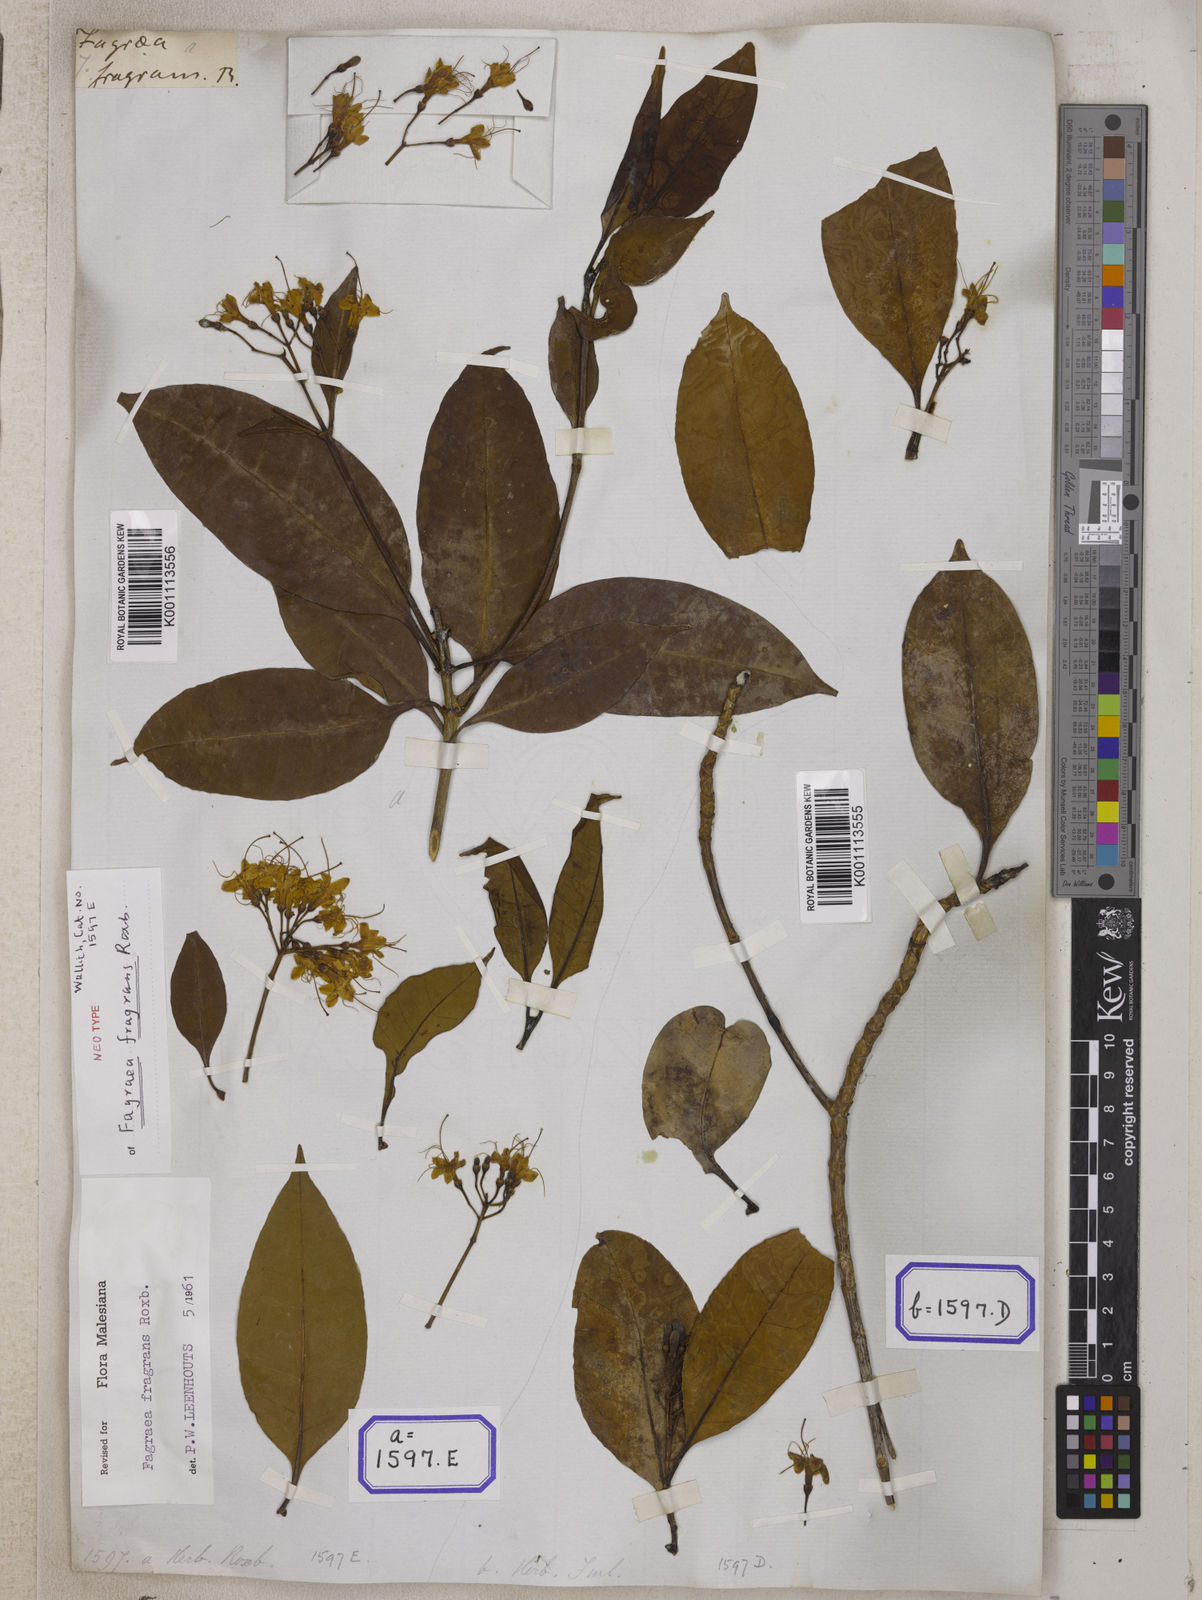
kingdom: Plantae
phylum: Tracheophyta
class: Magnoliopsida
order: Gentianales
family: Gentianaceae
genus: Cyrtophyllum
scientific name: Cyrtophyllum fragrans
